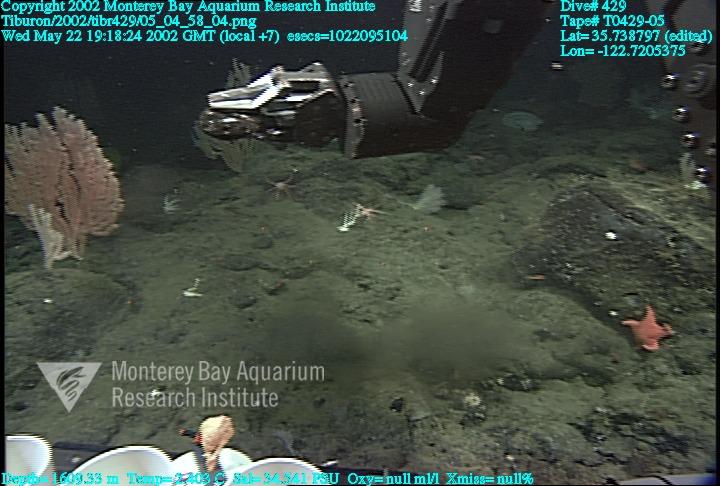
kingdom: Animalia
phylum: Porifera
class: Hexactinellida
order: Sceptrulophora
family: Euretidae
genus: Chonelasma
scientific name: Chonelasma
